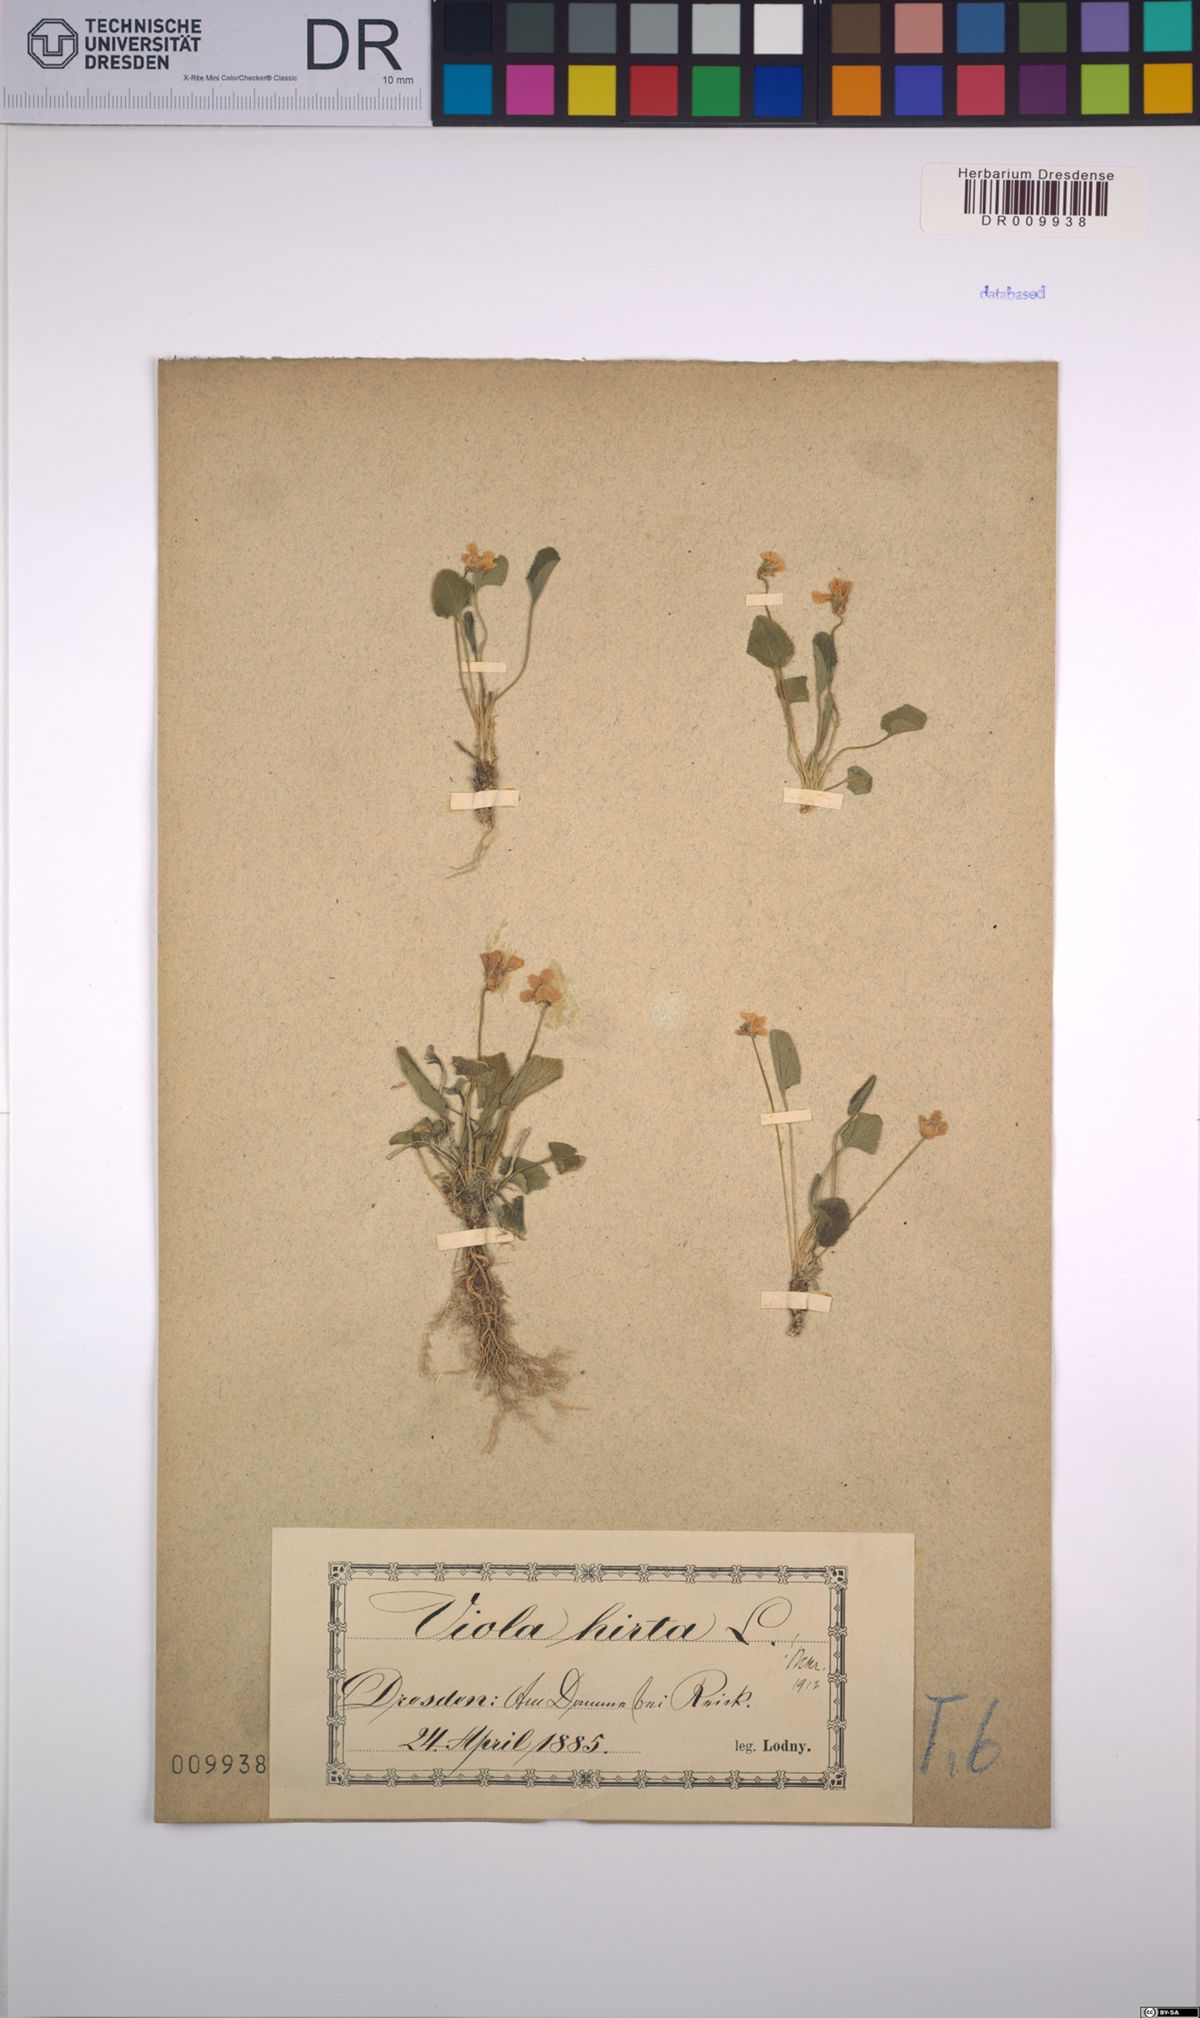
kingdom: Plantae
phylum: Tracheophyta
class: Magnoliopsida
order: Malpighiales
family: Violaceae
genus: Viola
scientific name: Viola hirta
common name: Hairy violet
